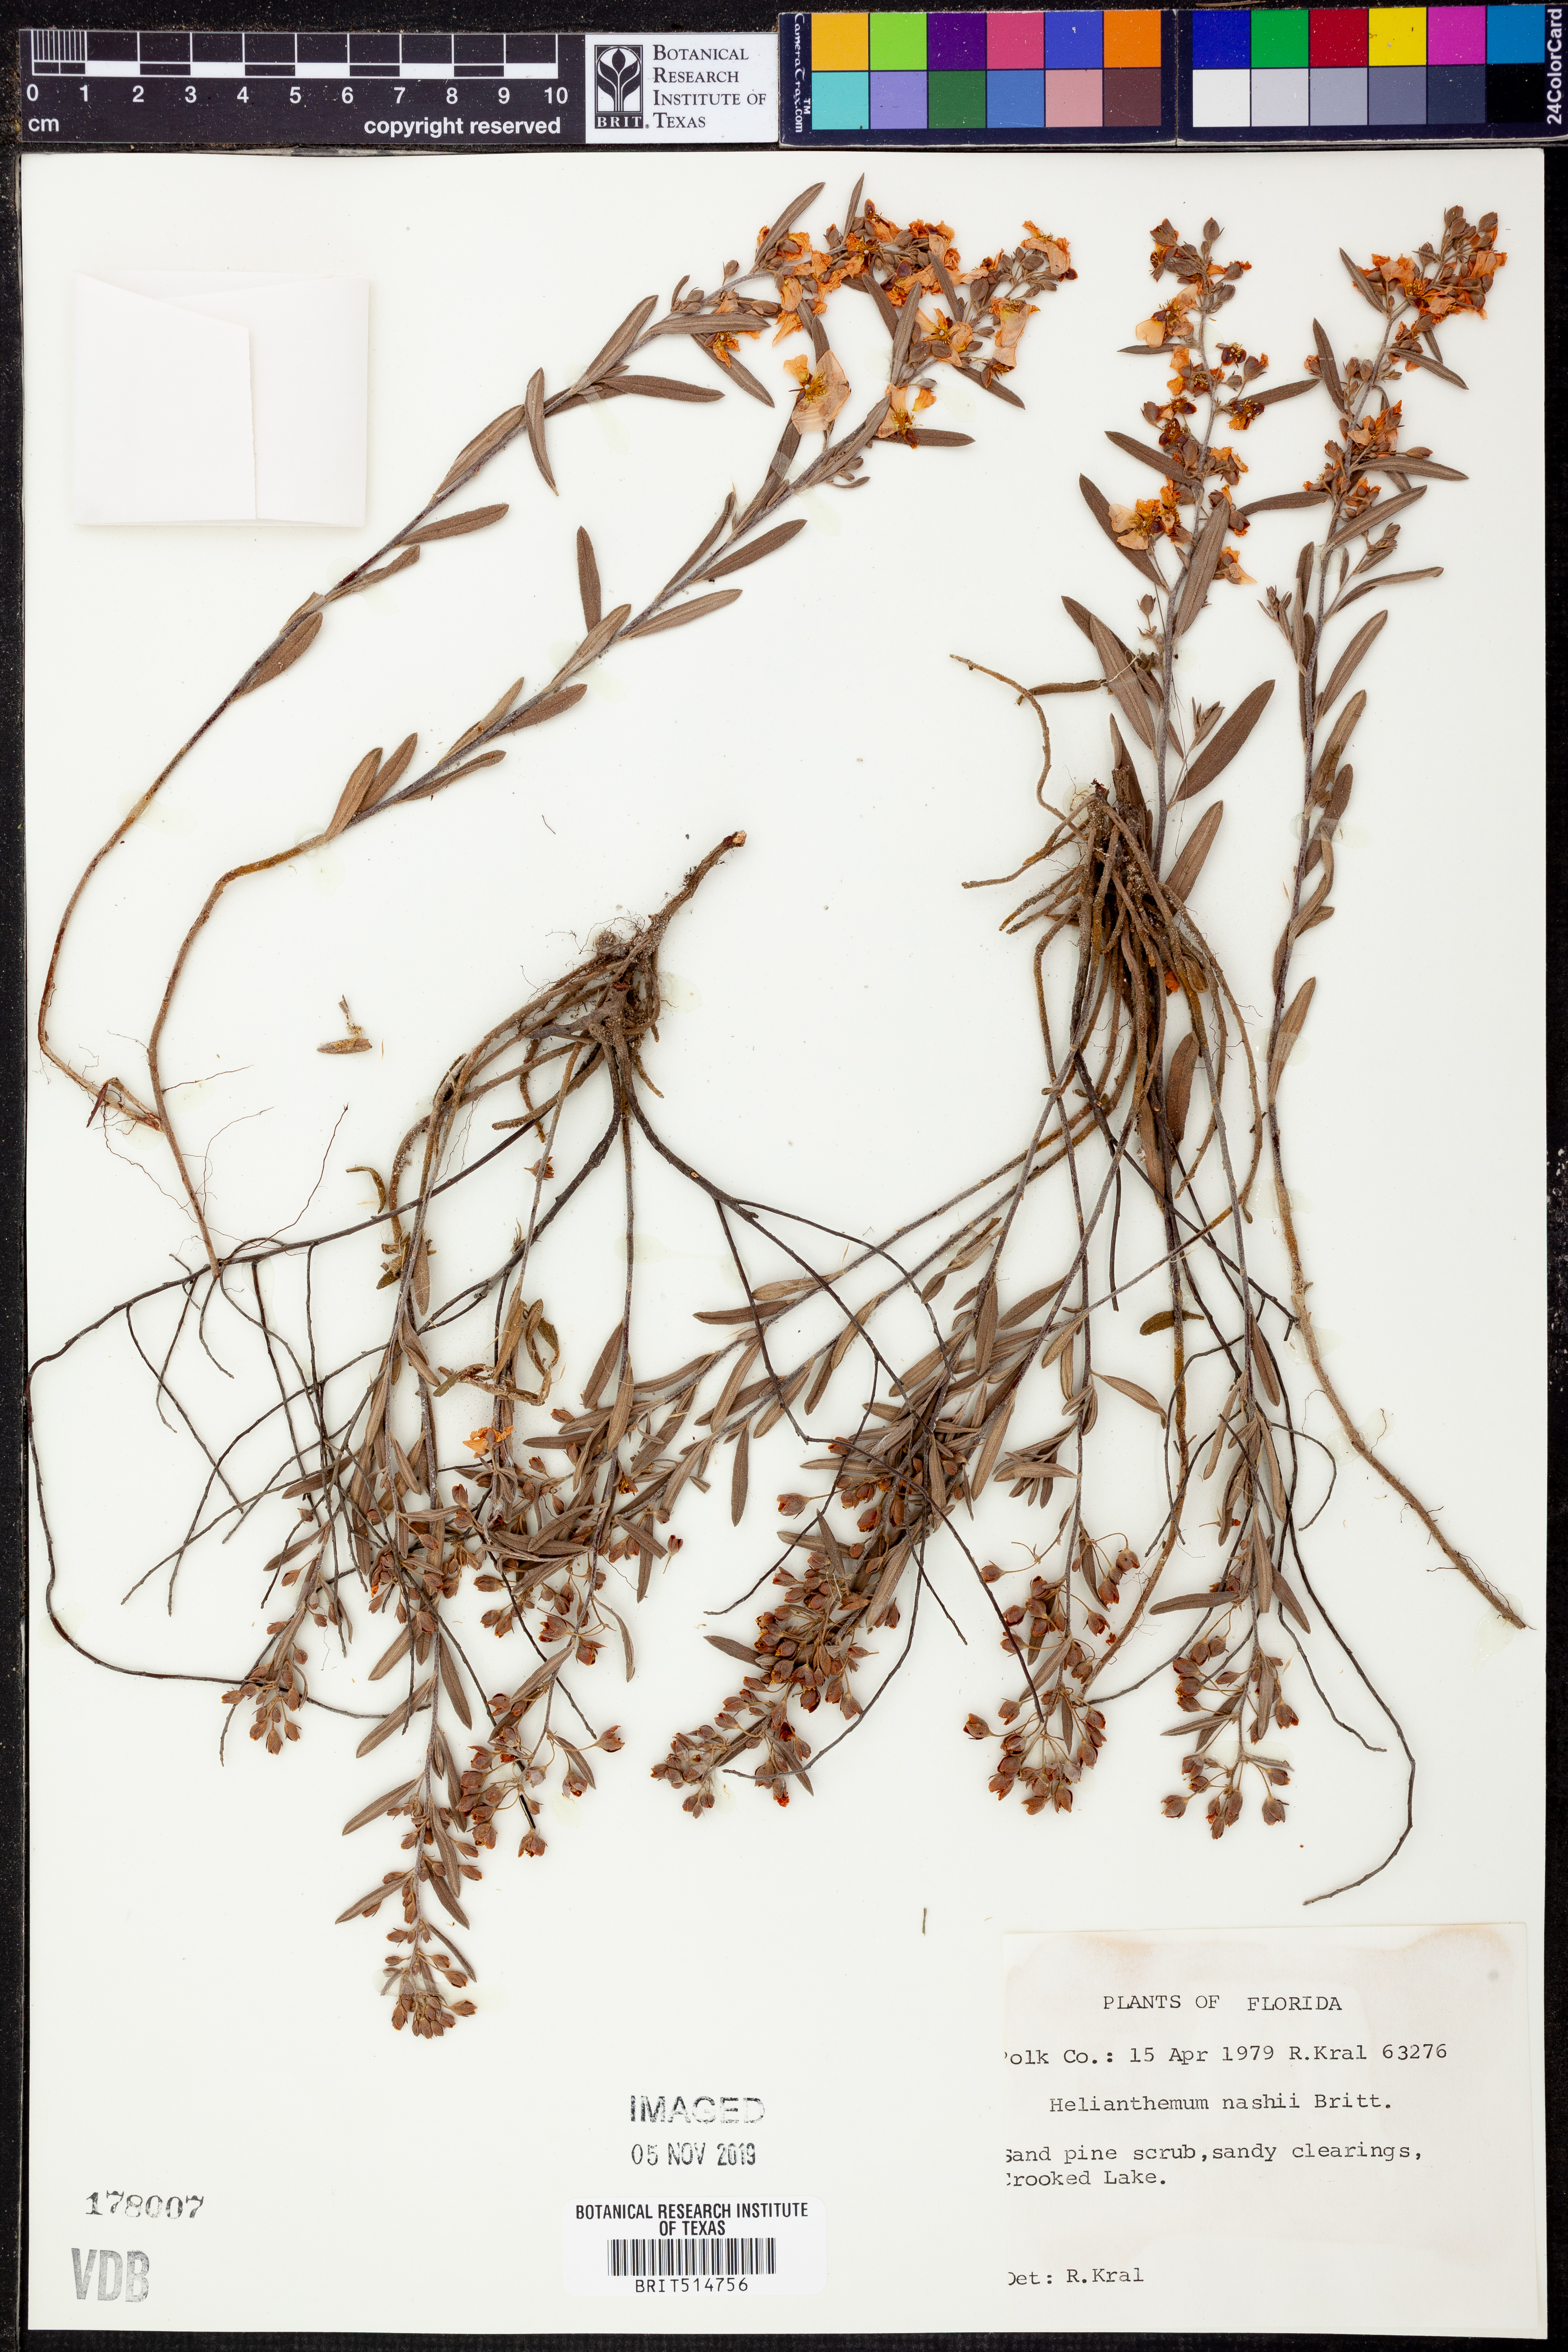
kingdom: Plantae
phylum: Tracheophyta
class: Magnoliopsida
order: Malvales
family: Cistaceae
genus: Crocanthemum
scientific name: Crocanthemum nashii
